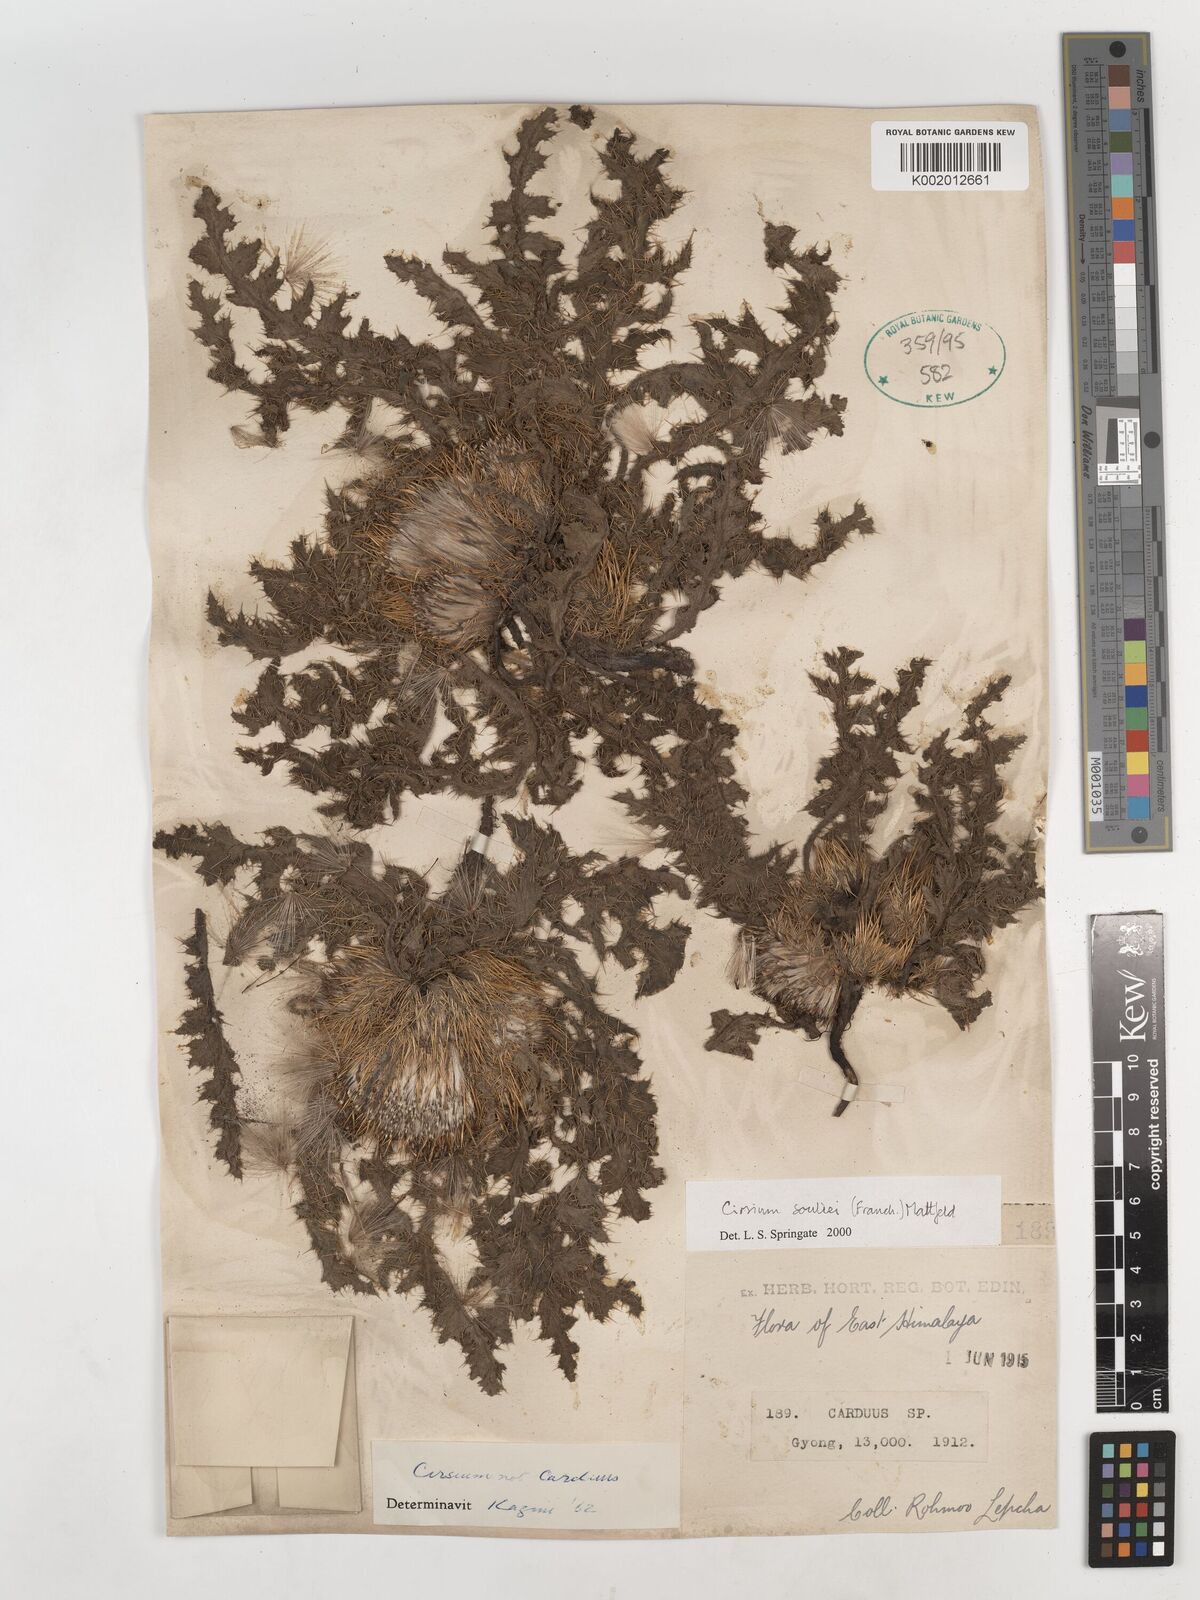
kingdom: Plantae
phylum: Tracheophyta
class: Magnoliopsida
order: Asterales
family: Asteraceae
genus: Cirsium
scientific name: Cirsium souliei
